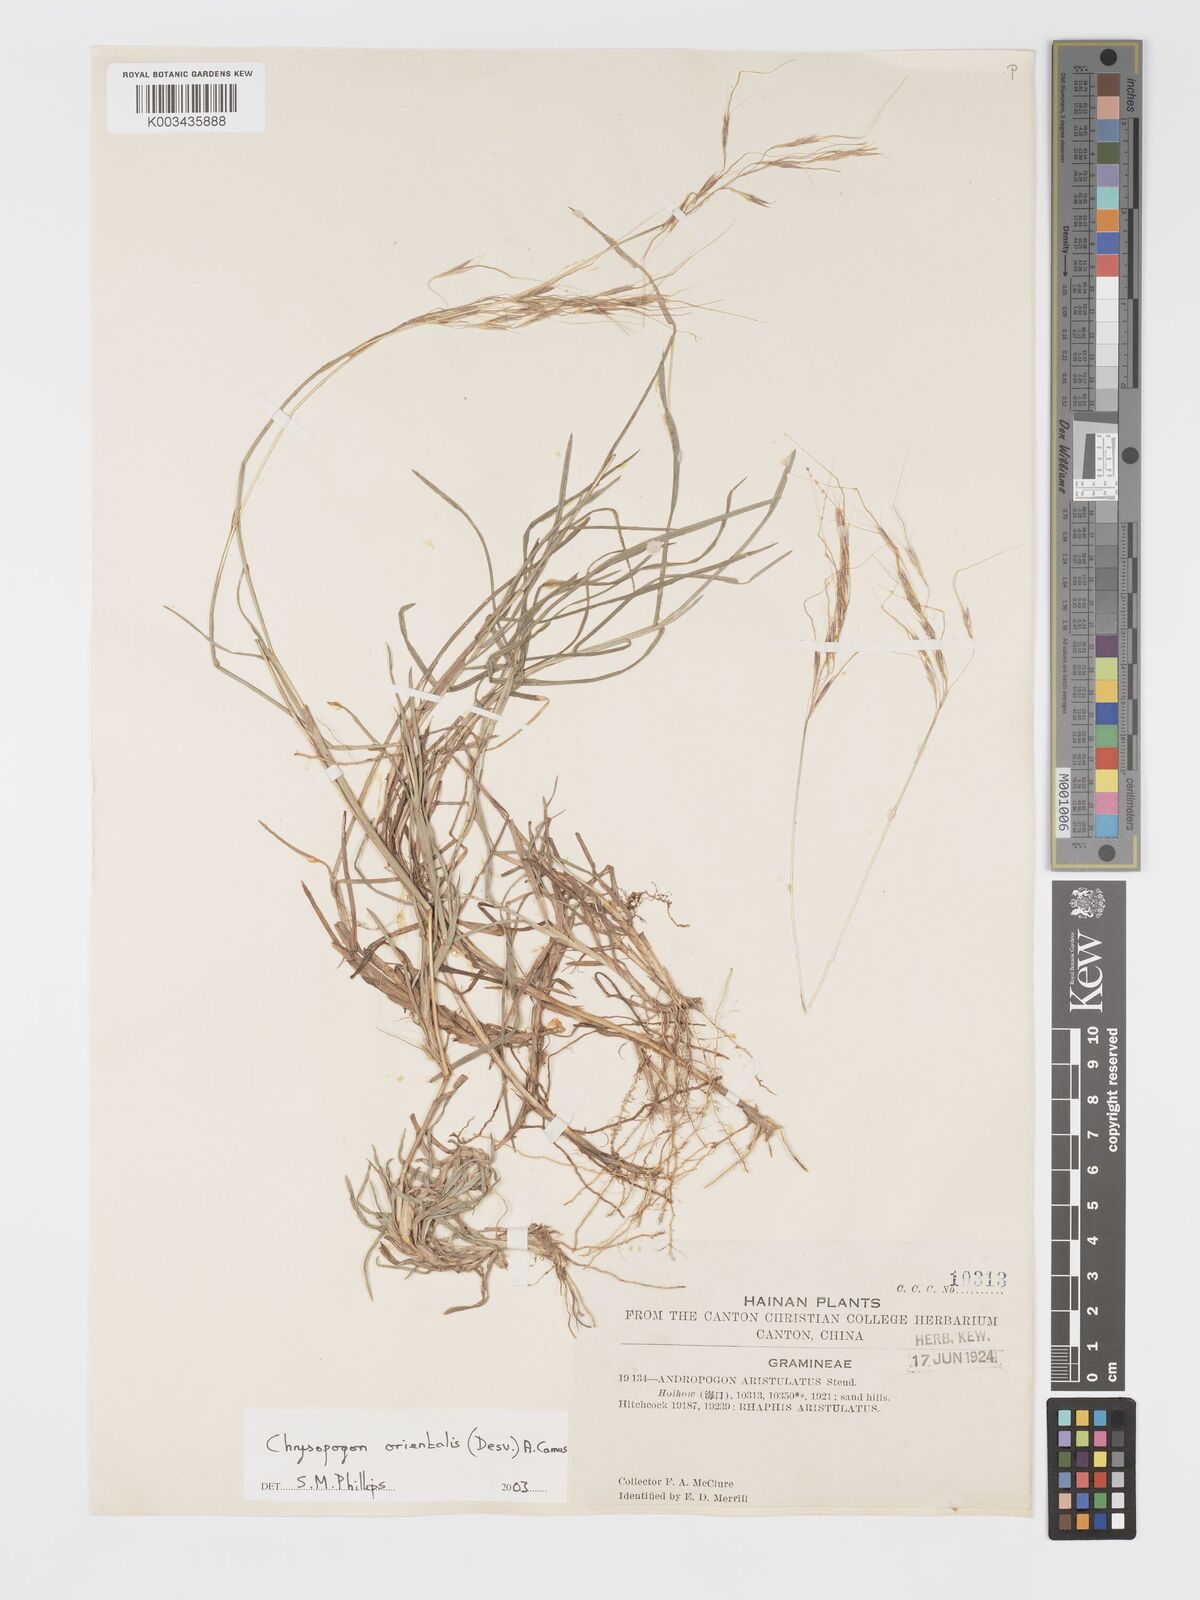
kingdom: Plantae
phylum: Tracheophyta
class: Liliopsida
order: Poales
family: Poaceae
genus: Chrysopogon
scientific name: Chrysopogon orientalis
